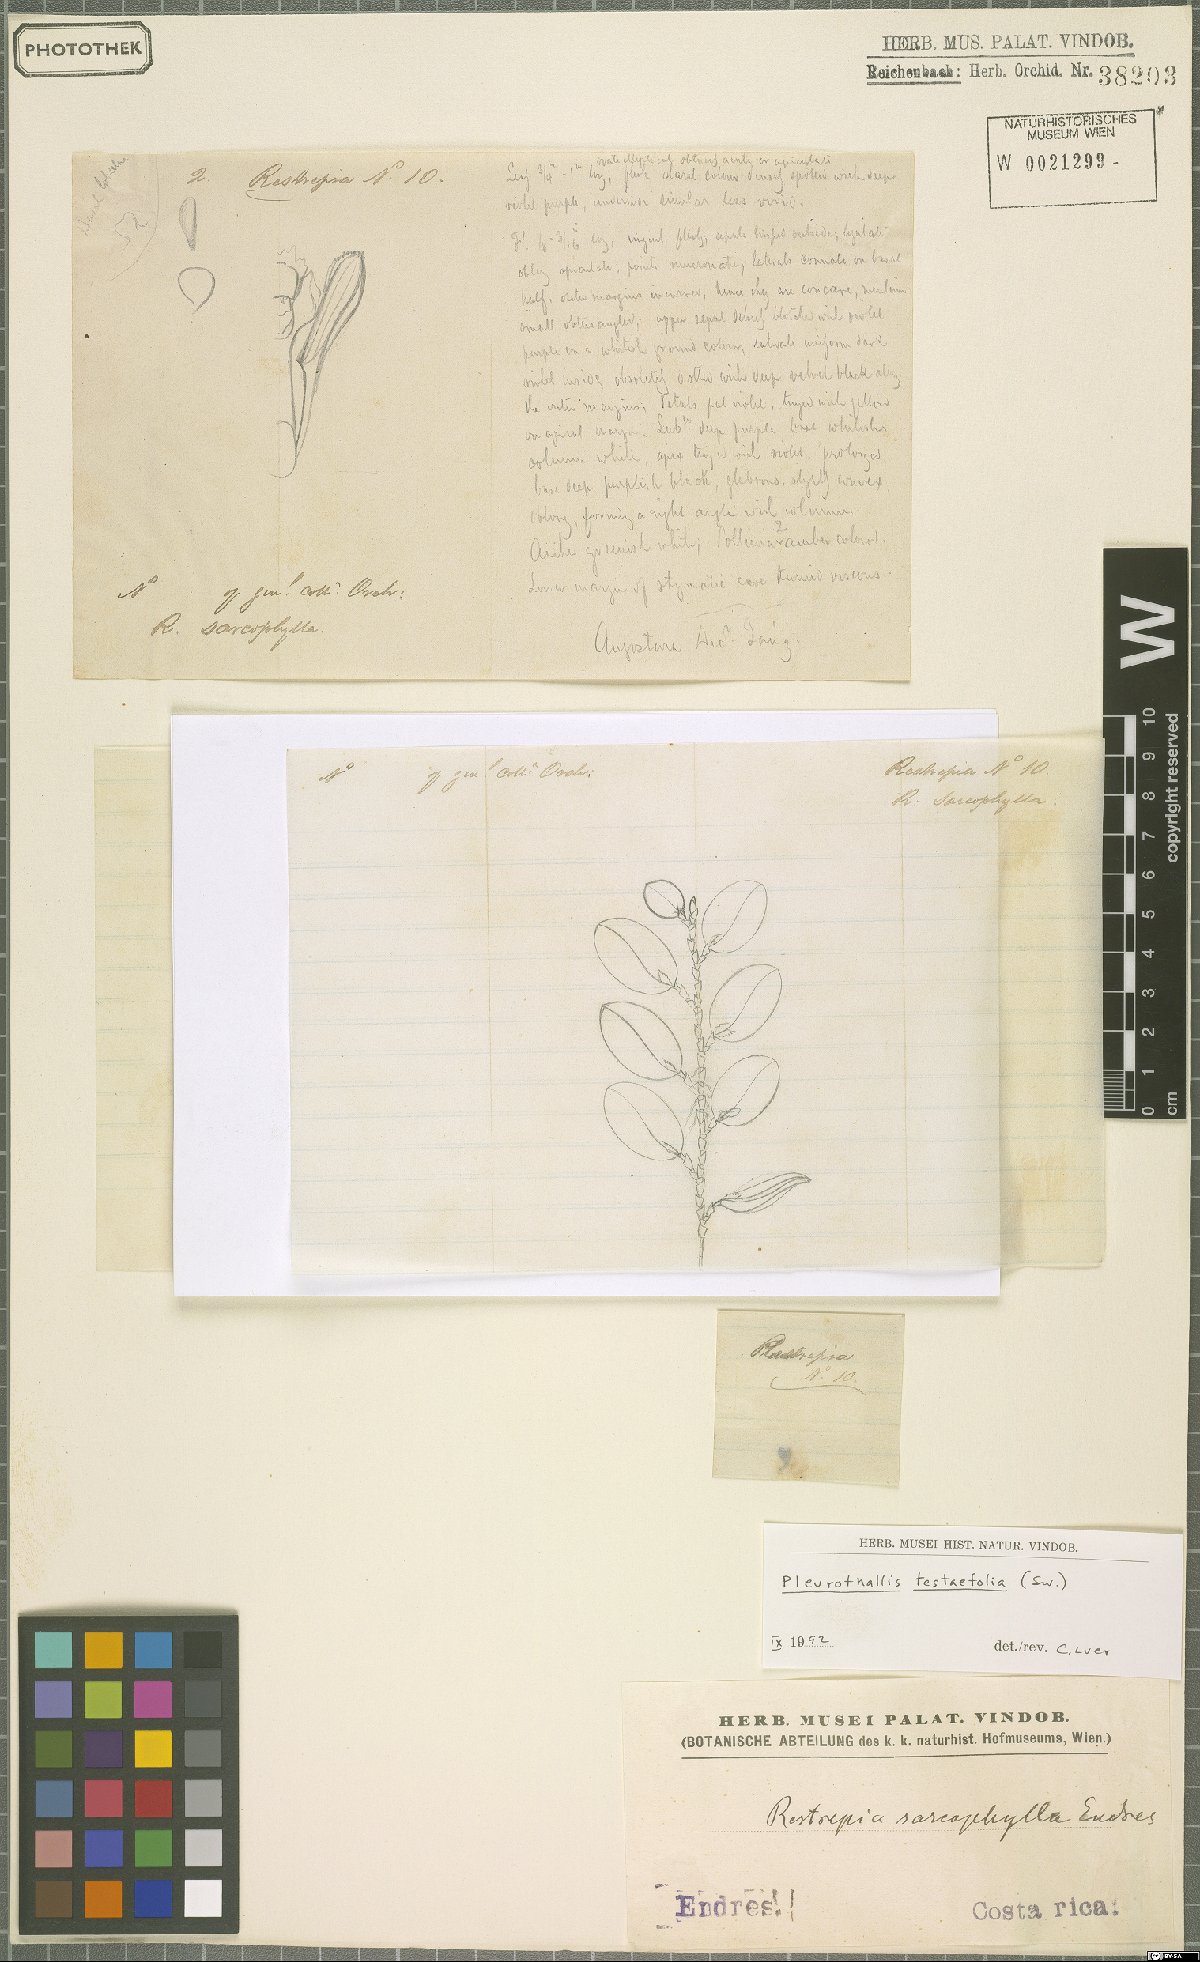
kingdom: Plantae
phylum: Tracheophyta
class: Liliopsida
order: Asparagales
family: Orchidaceae
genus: Acianthera
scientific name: Acianthera testifolia
